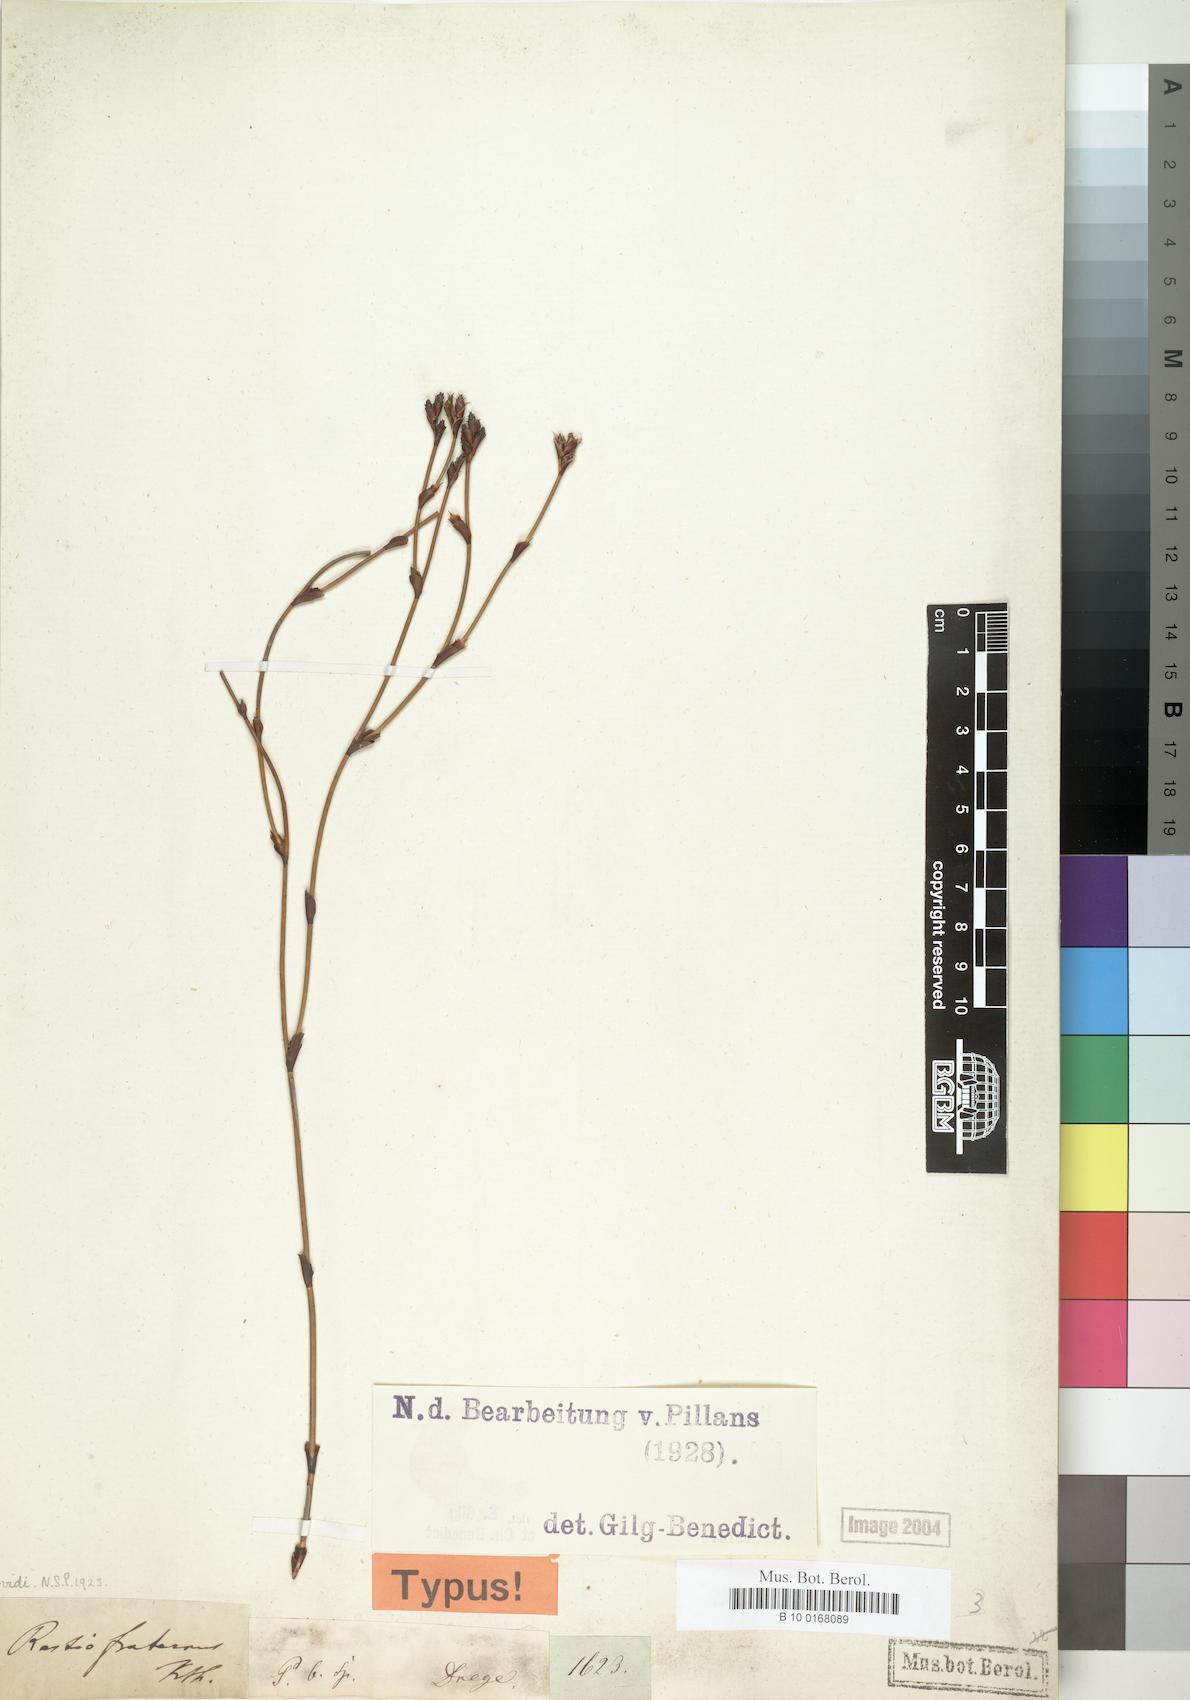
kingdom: Plantae
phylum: Tracheophyta
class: Liliopsida
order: Poales
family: Restionaceae
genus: Restio
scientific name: Restio fraternus
